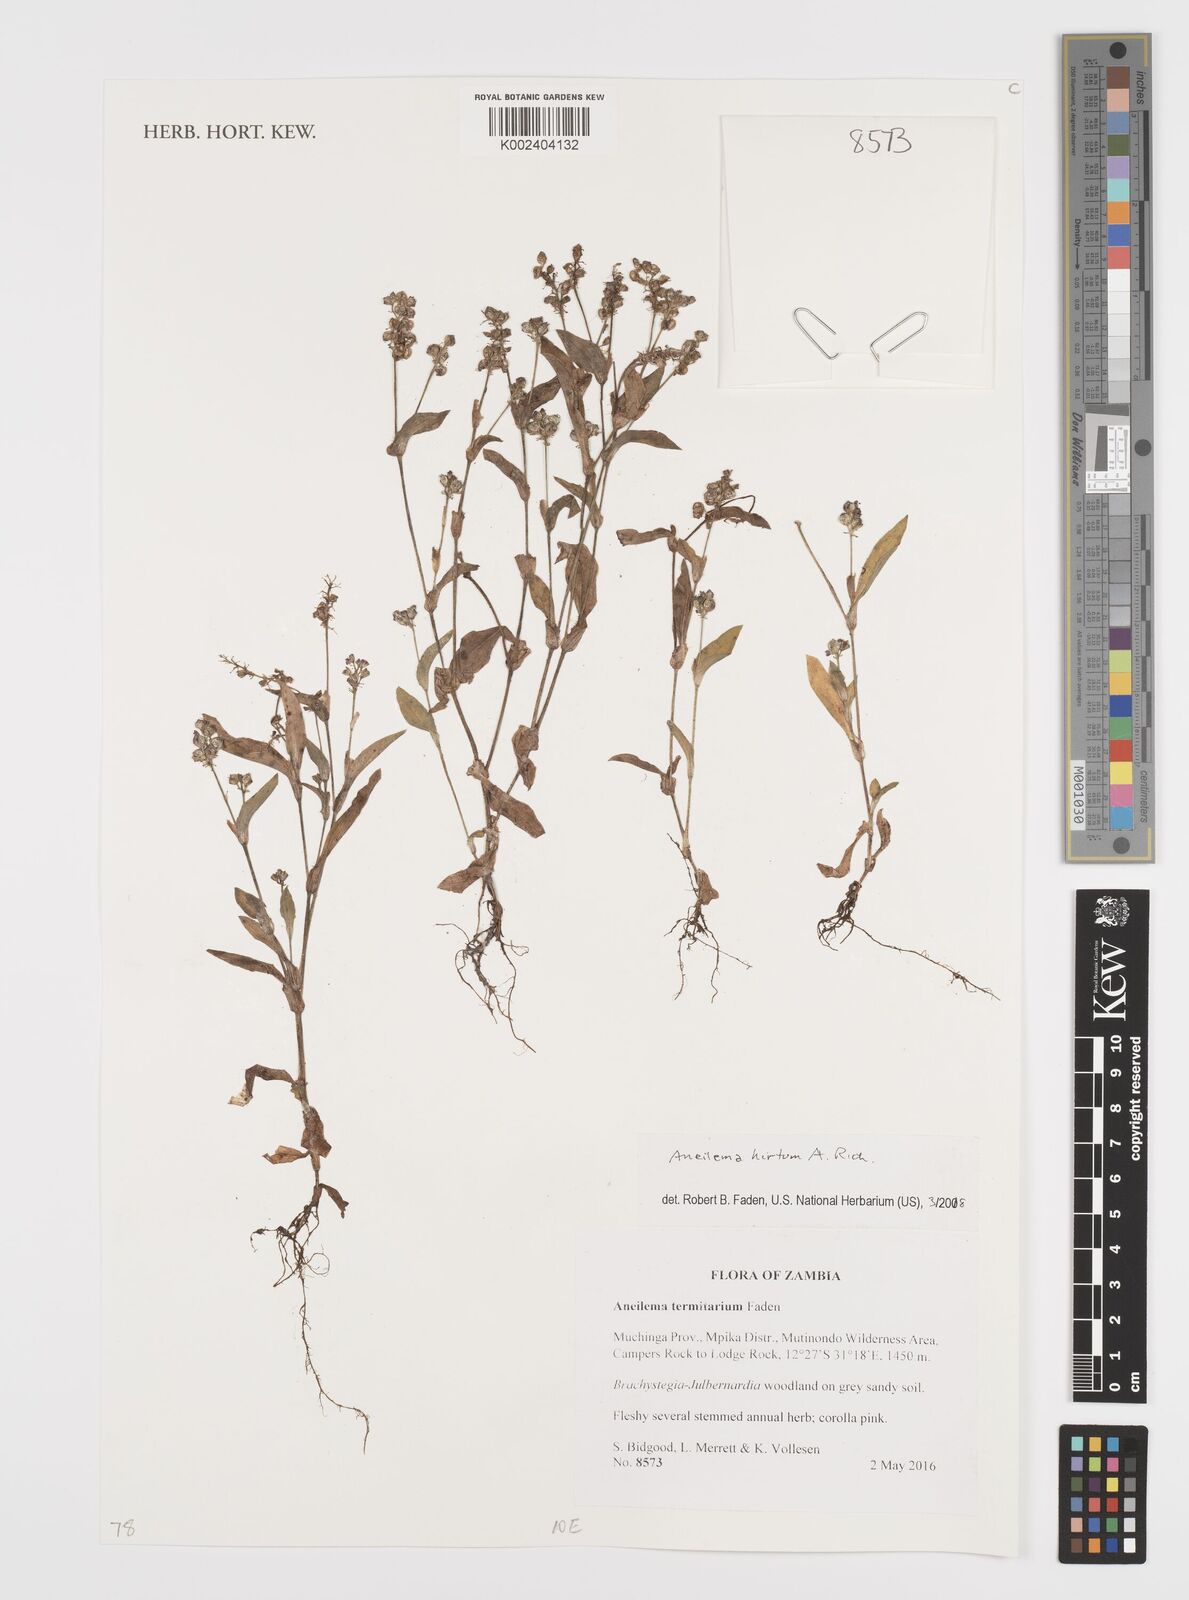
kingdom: Plantae
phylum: Tracheophyta
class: Liliopsida
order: Commelinales
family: Commelinaceae
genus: Aneilema
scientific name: Aneilema hirtum
